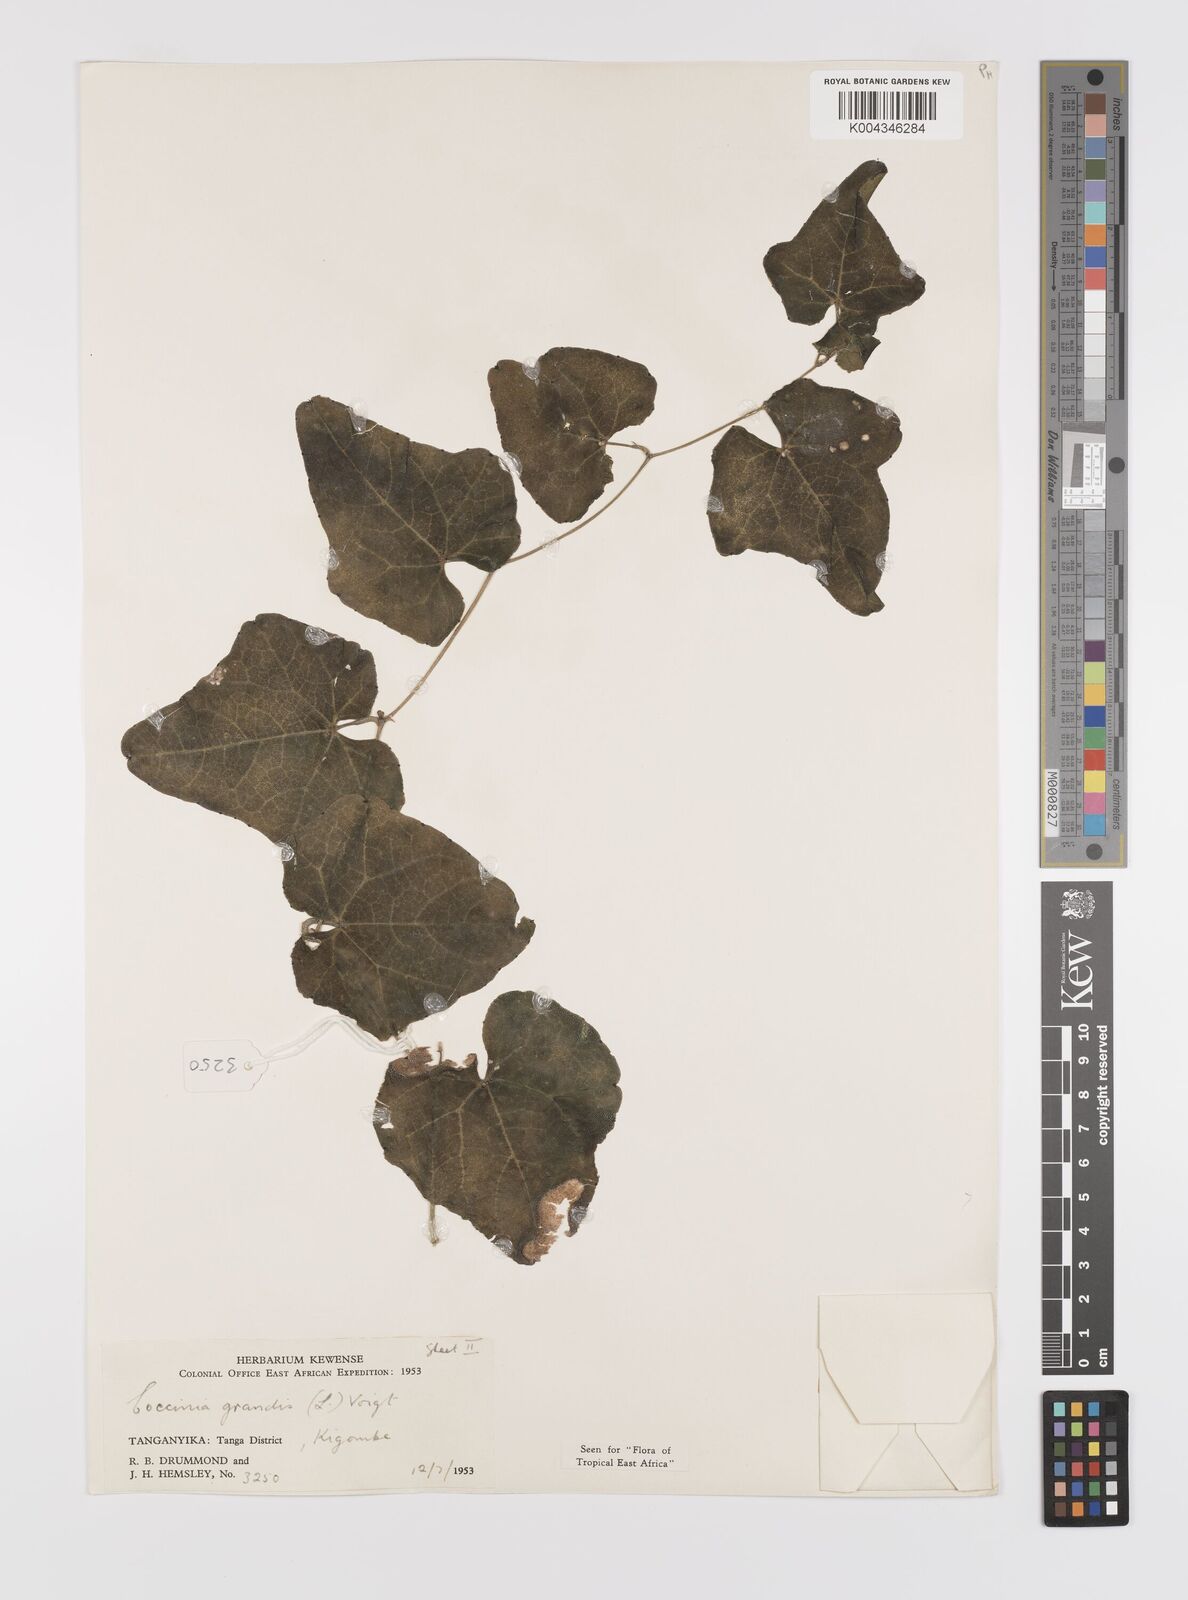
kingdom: Plantae
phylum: Tracheophyta
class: Magnoliopsida
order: Cucurbitales
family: Cucurbitaceae
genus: Coccinia
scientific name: Coccinia grandis
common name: Ivy gourd
